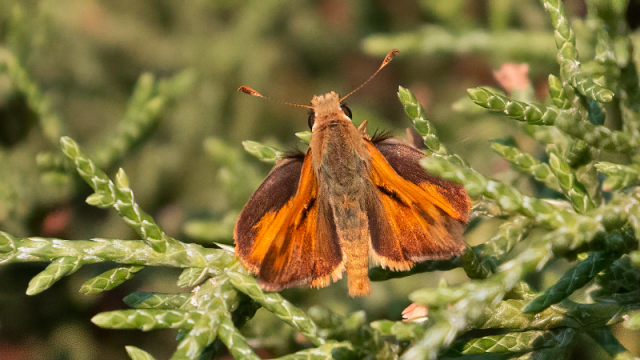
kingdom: Animalia
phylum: Arthropoda
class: Insecta
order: Lepidoptera
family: Hesperiidae
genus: Ochlodes
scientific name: Ochlodes sylvanoides
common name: Woodland Skipper
